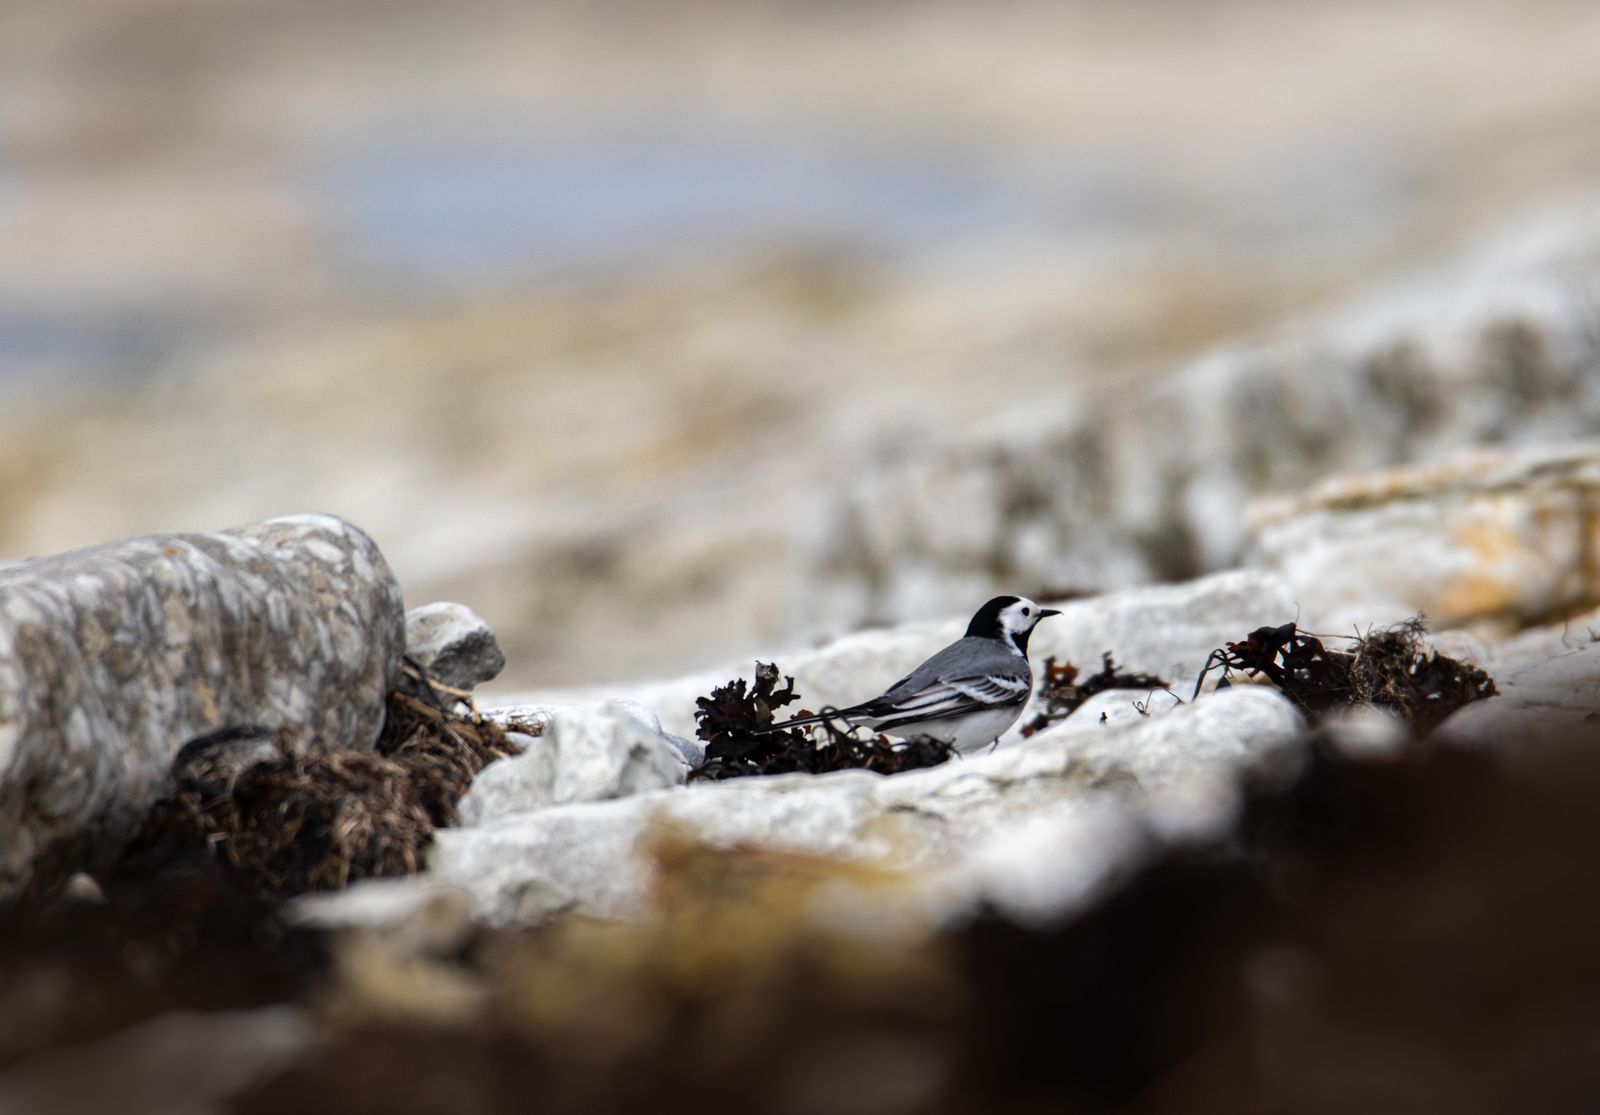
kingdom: Animalia
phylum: Chordata
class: Aves
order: Passeriformes
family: Motacillidae
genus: Motacilla
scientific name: Motacilla alba
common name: White wagtail
